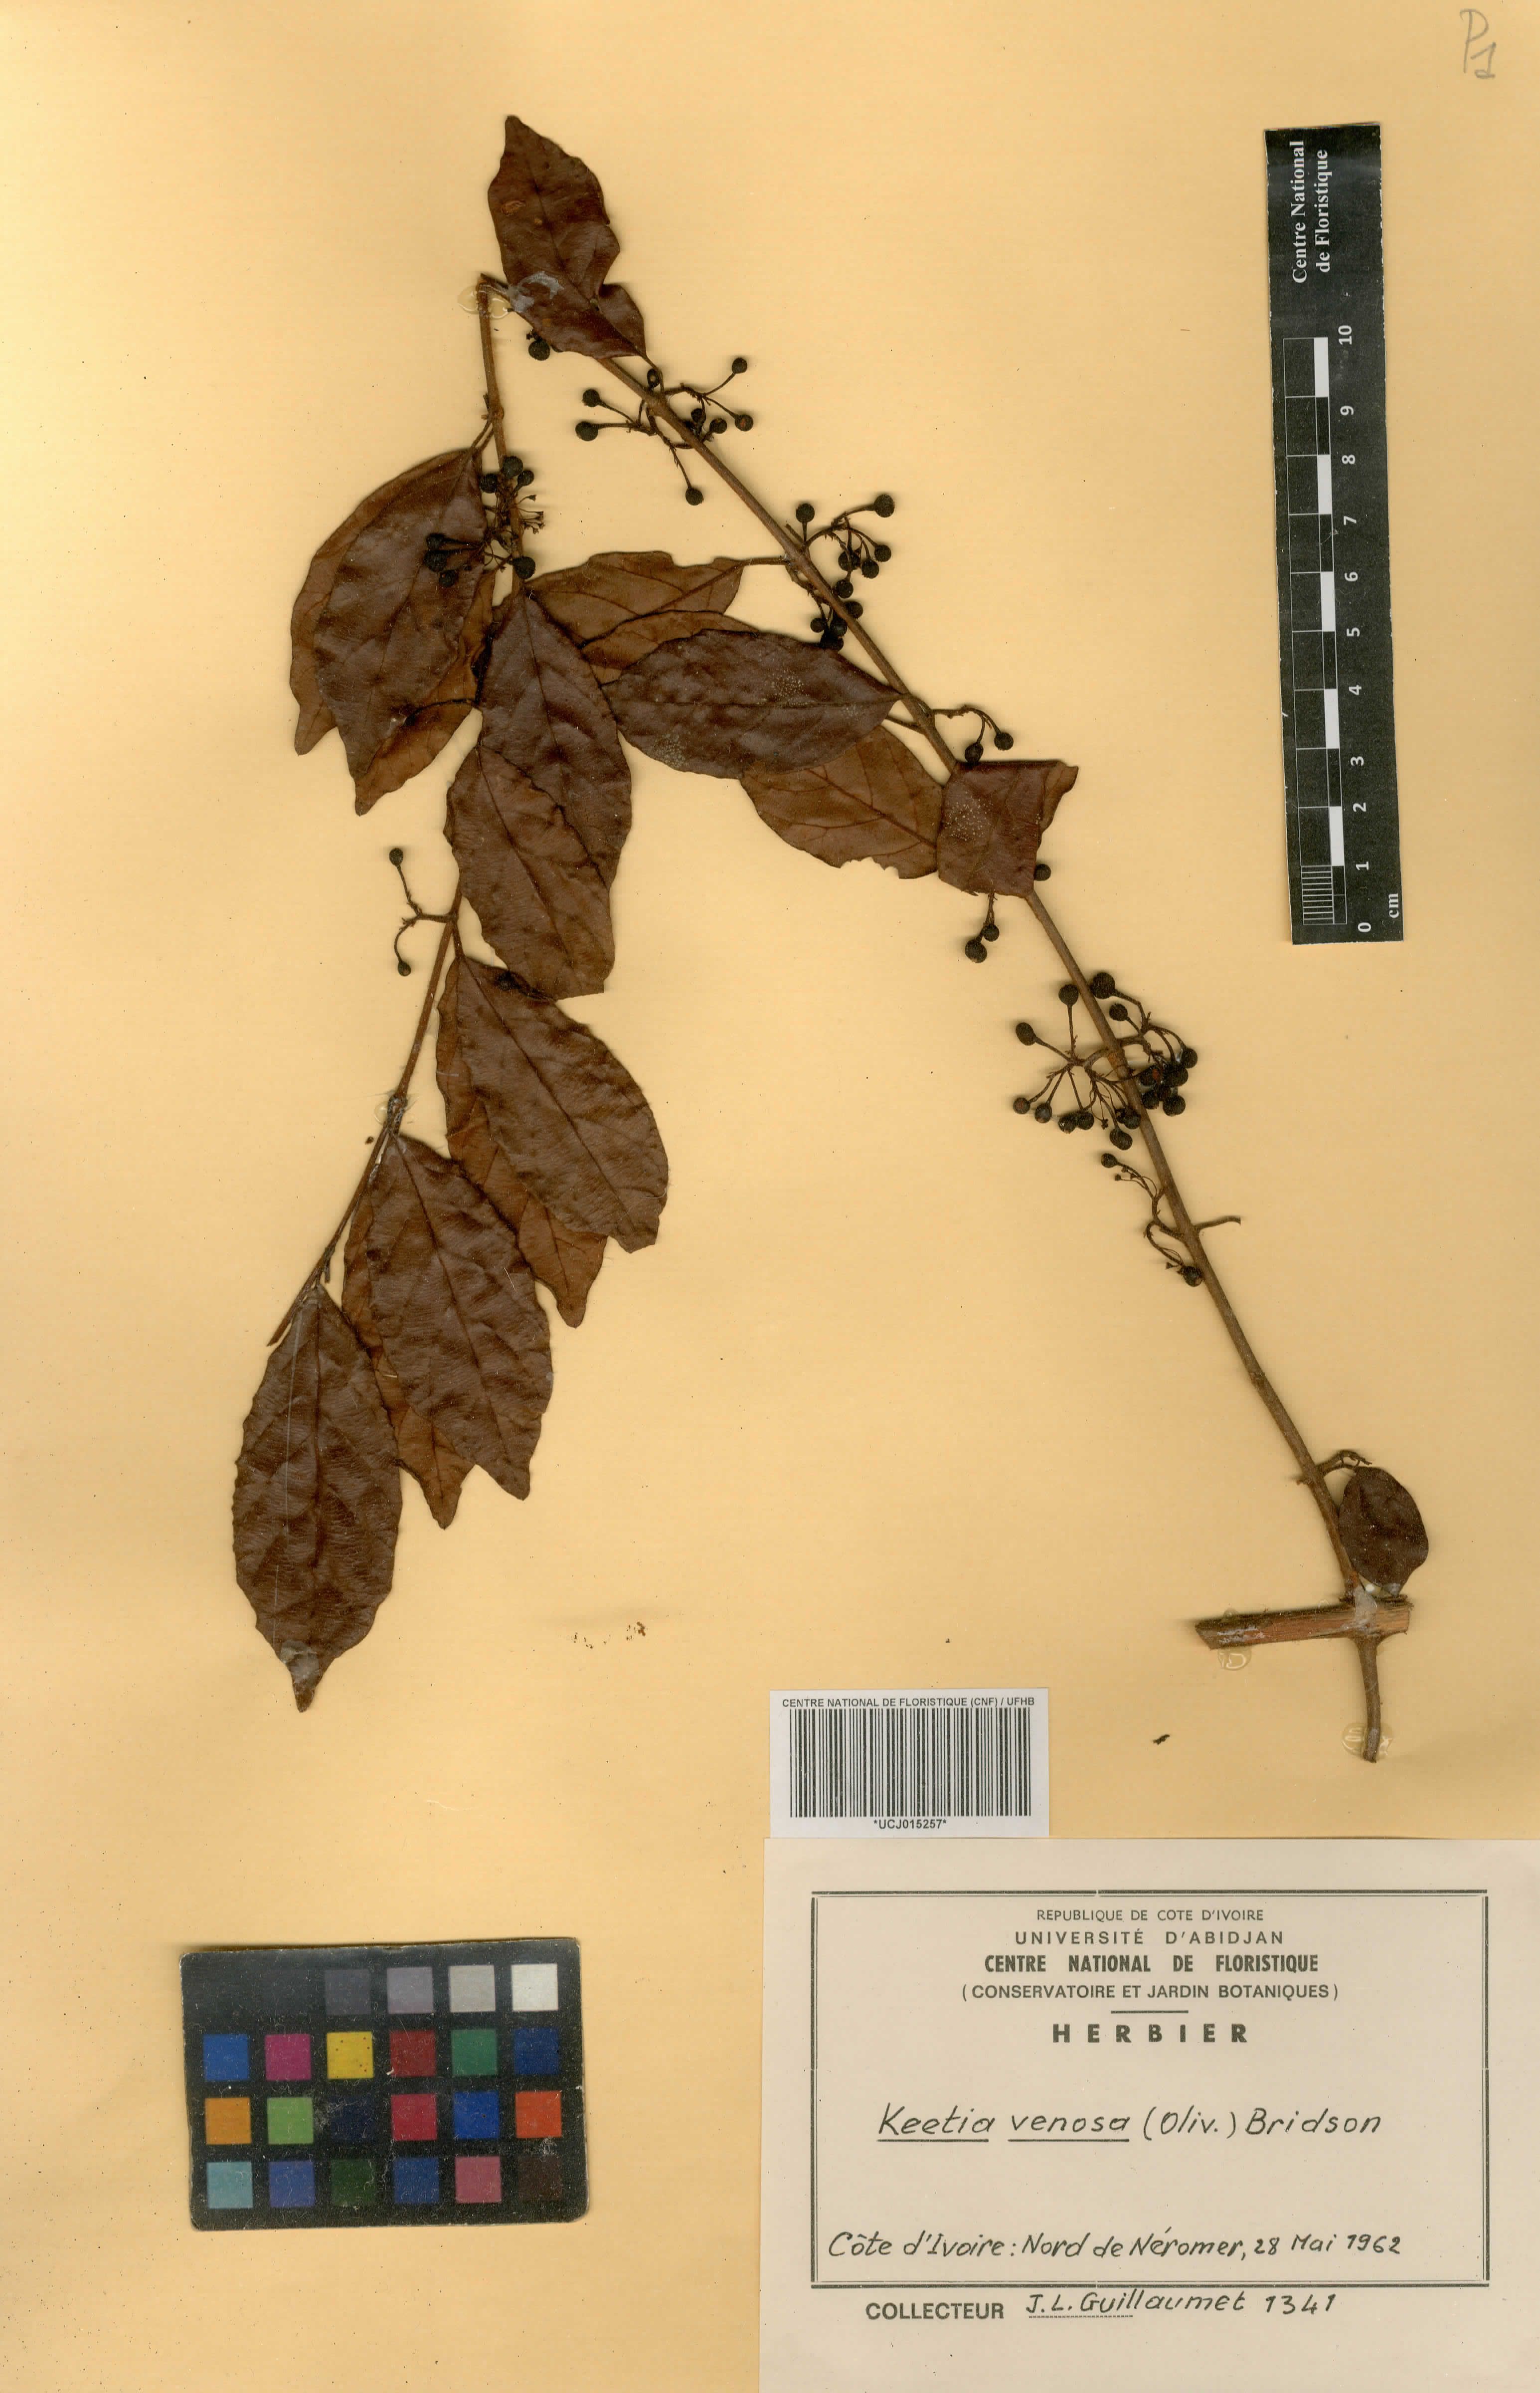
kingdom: Plantae
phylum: Tracheophyta
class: Magnoliopsida
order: Gentianales
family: Rubiaceae
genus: Keetia
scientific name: Keetia venosa
